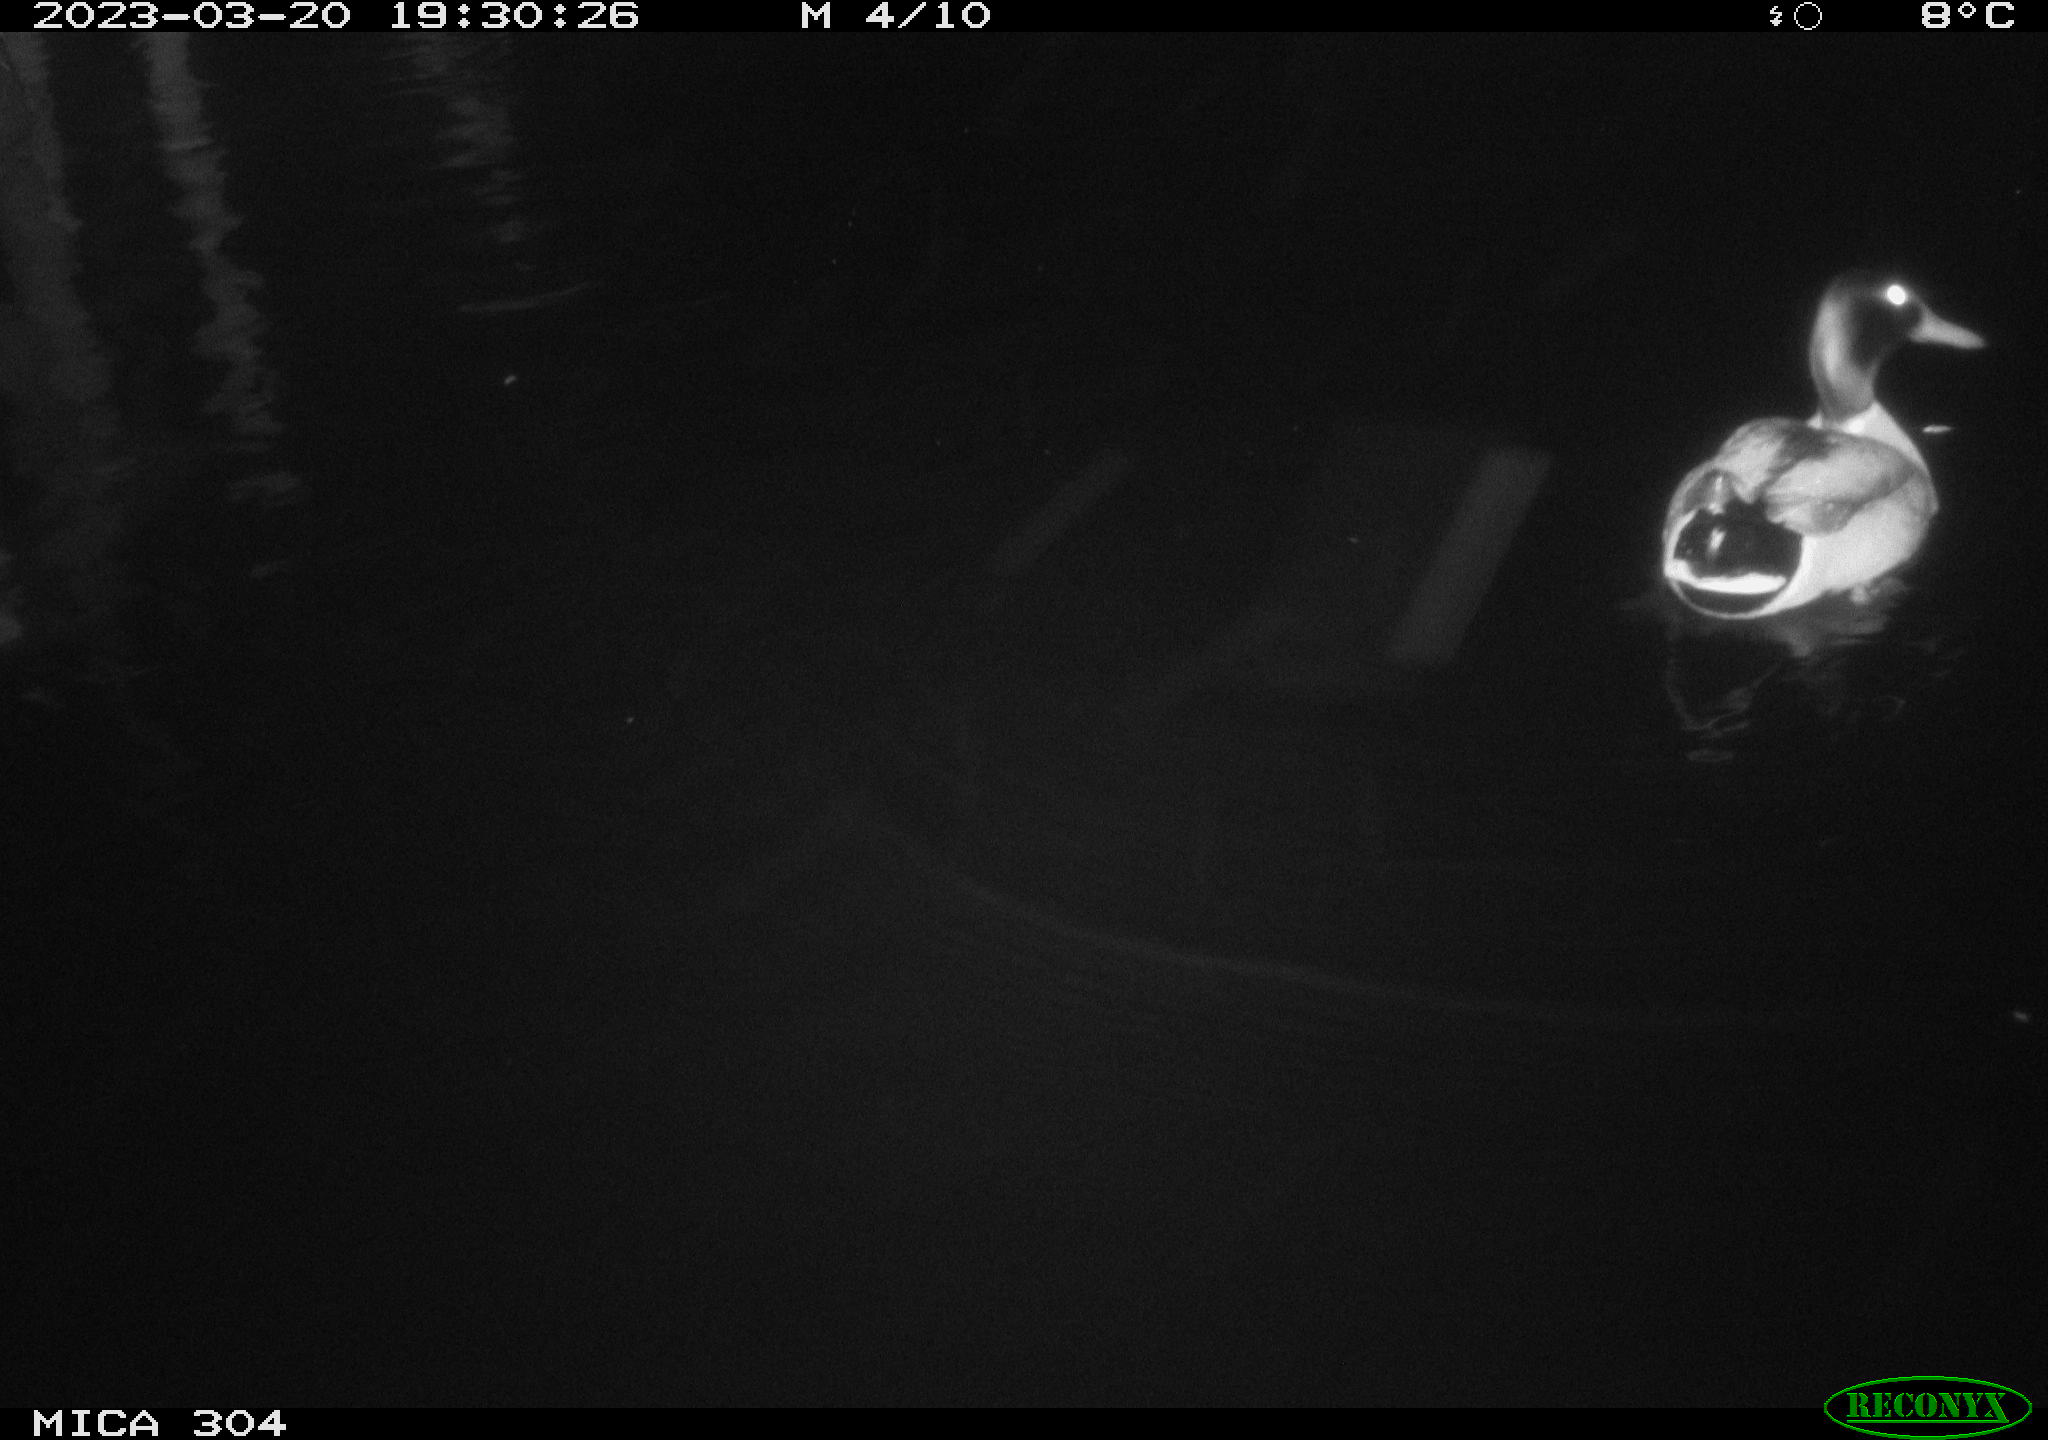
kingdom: Animalia
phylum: Chordata
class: Aves
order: Anseriformes
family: Anatidae
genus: Anas
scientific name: Anas
